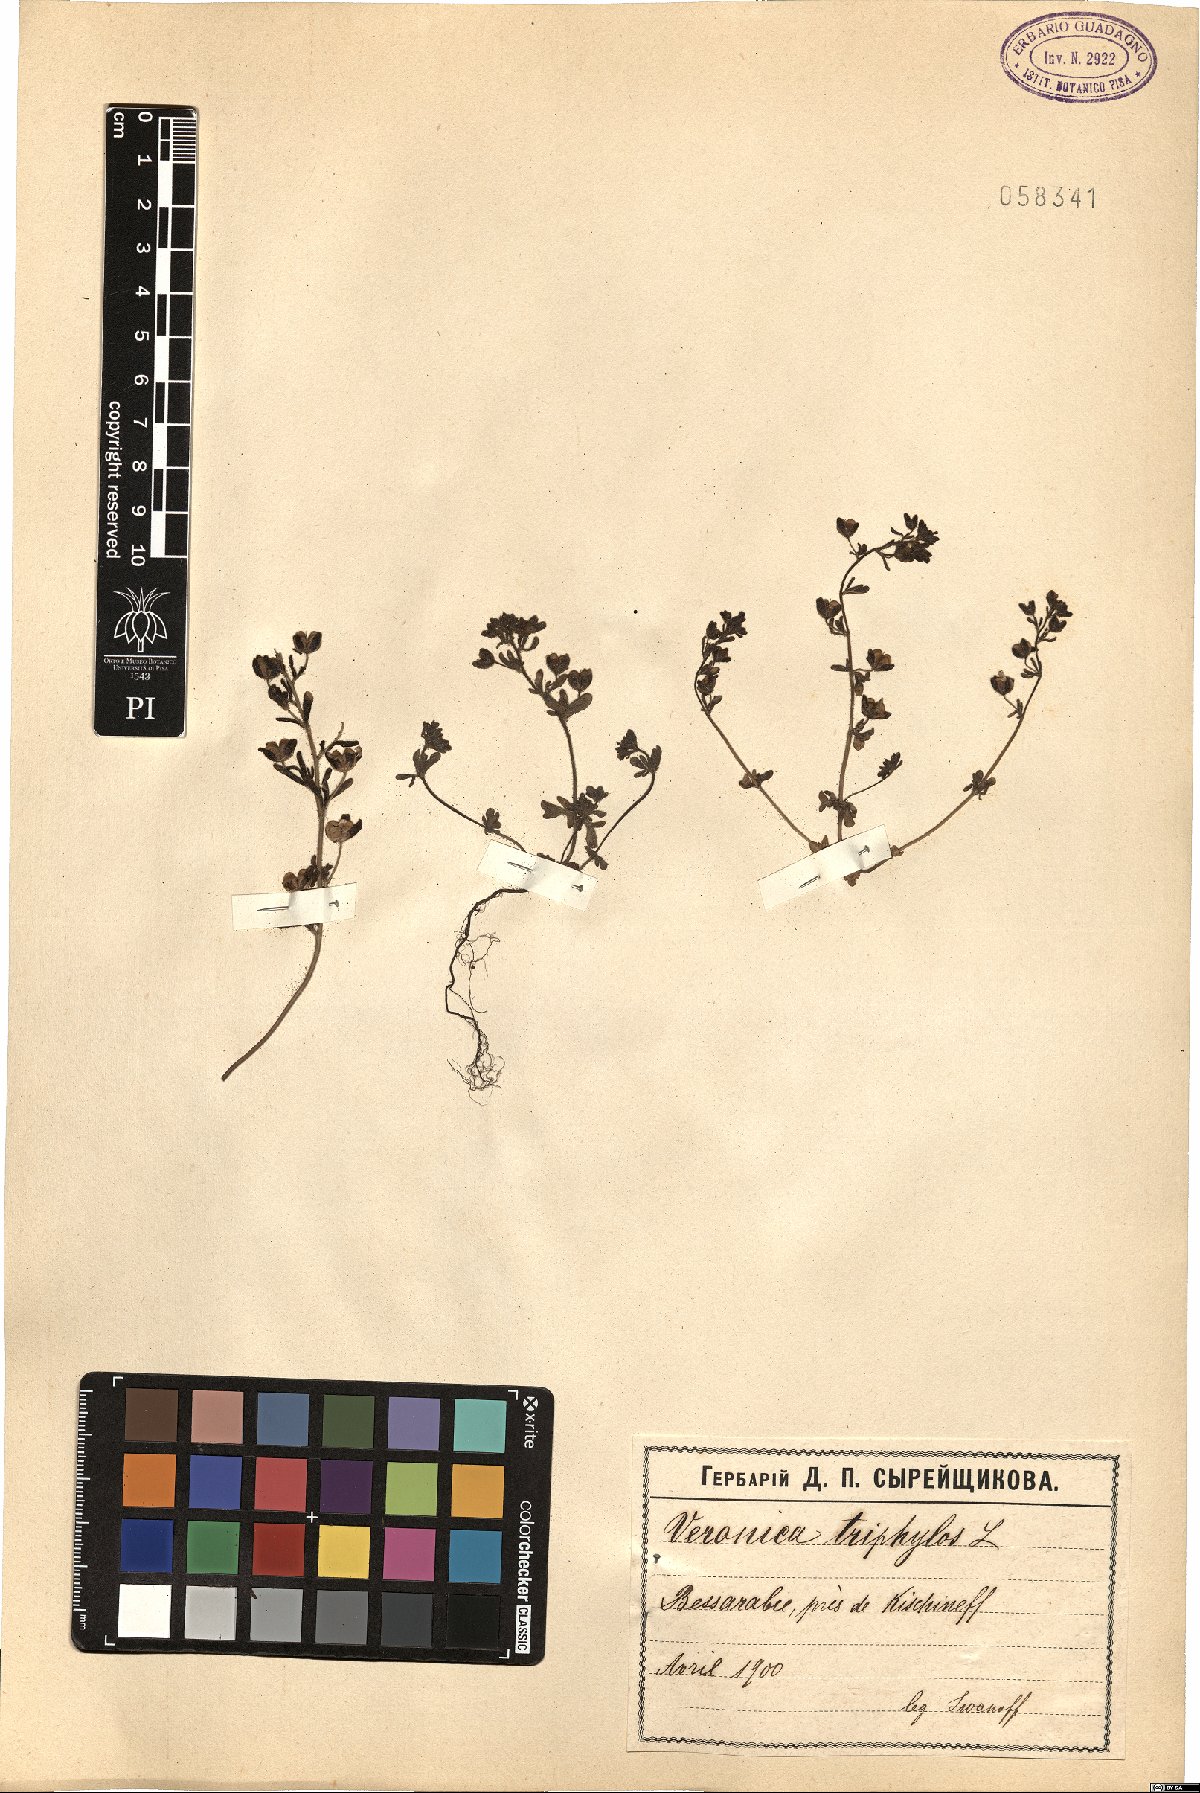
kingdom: Plantae
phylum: Tracheophyta
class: Magnoliopsida
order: Lamiales
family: Plantaginaceae
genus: Veronica
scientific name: Veronica triphyllos
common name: Fingered speedwell
